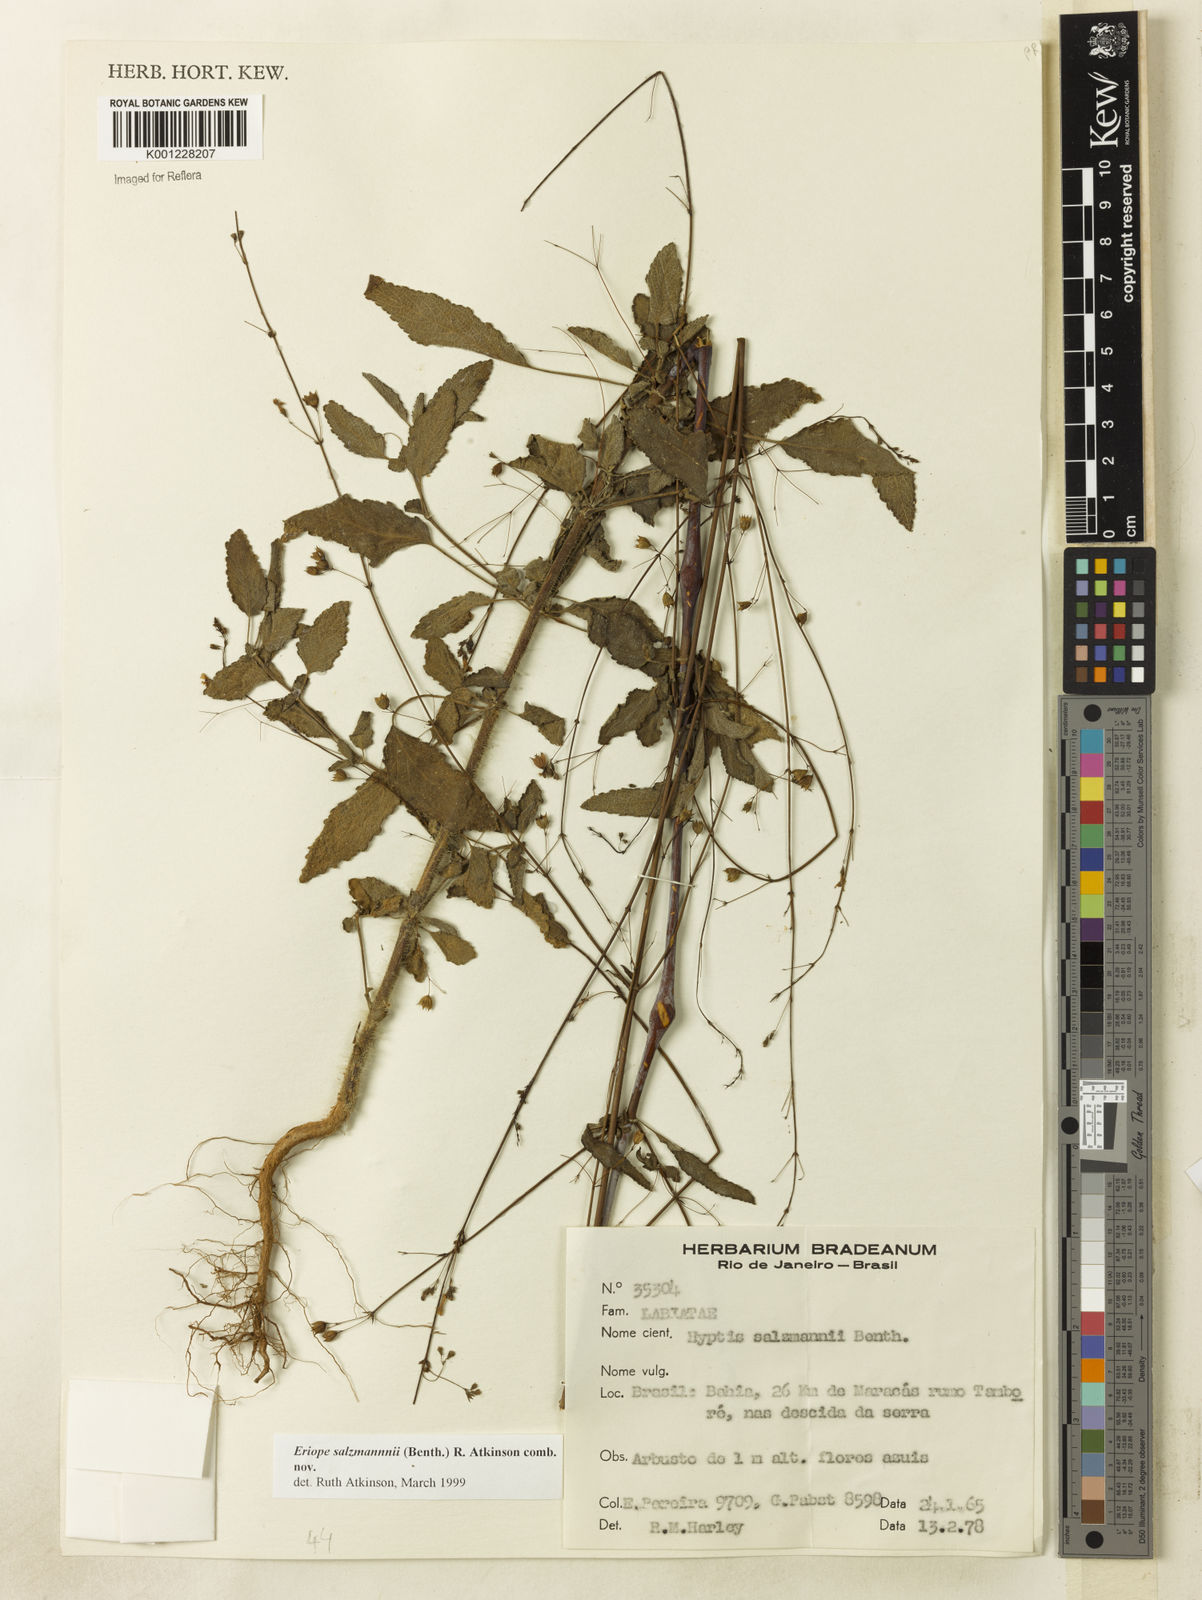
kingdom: Plantae
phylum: Tracheophyta
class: Magnoliopsida
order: Lamiales
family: Lamiaceae
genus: Hypenia
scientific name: Hypenia salzmannii
